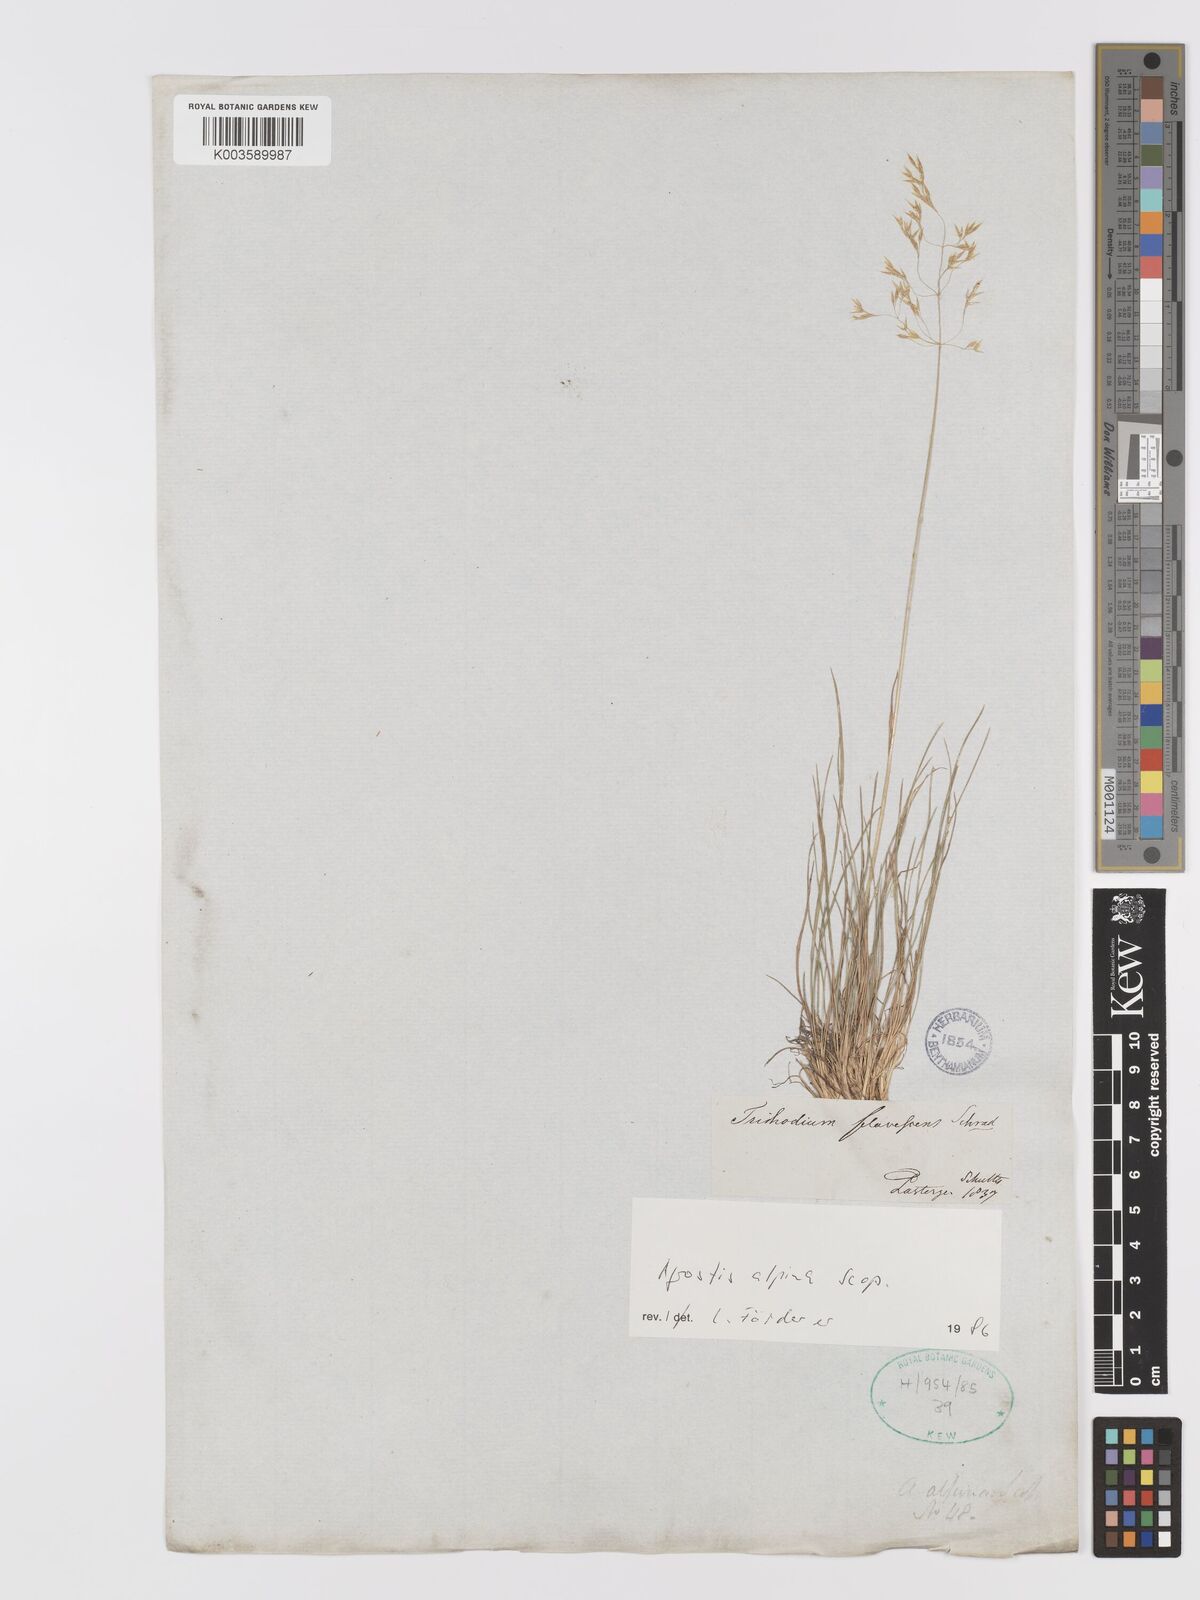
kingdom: Plantae
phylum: Tracheophyta
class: Liliopsida
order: Poales
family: Poaceae
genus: Alpagrostis
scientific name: Alpagrostis alpina
